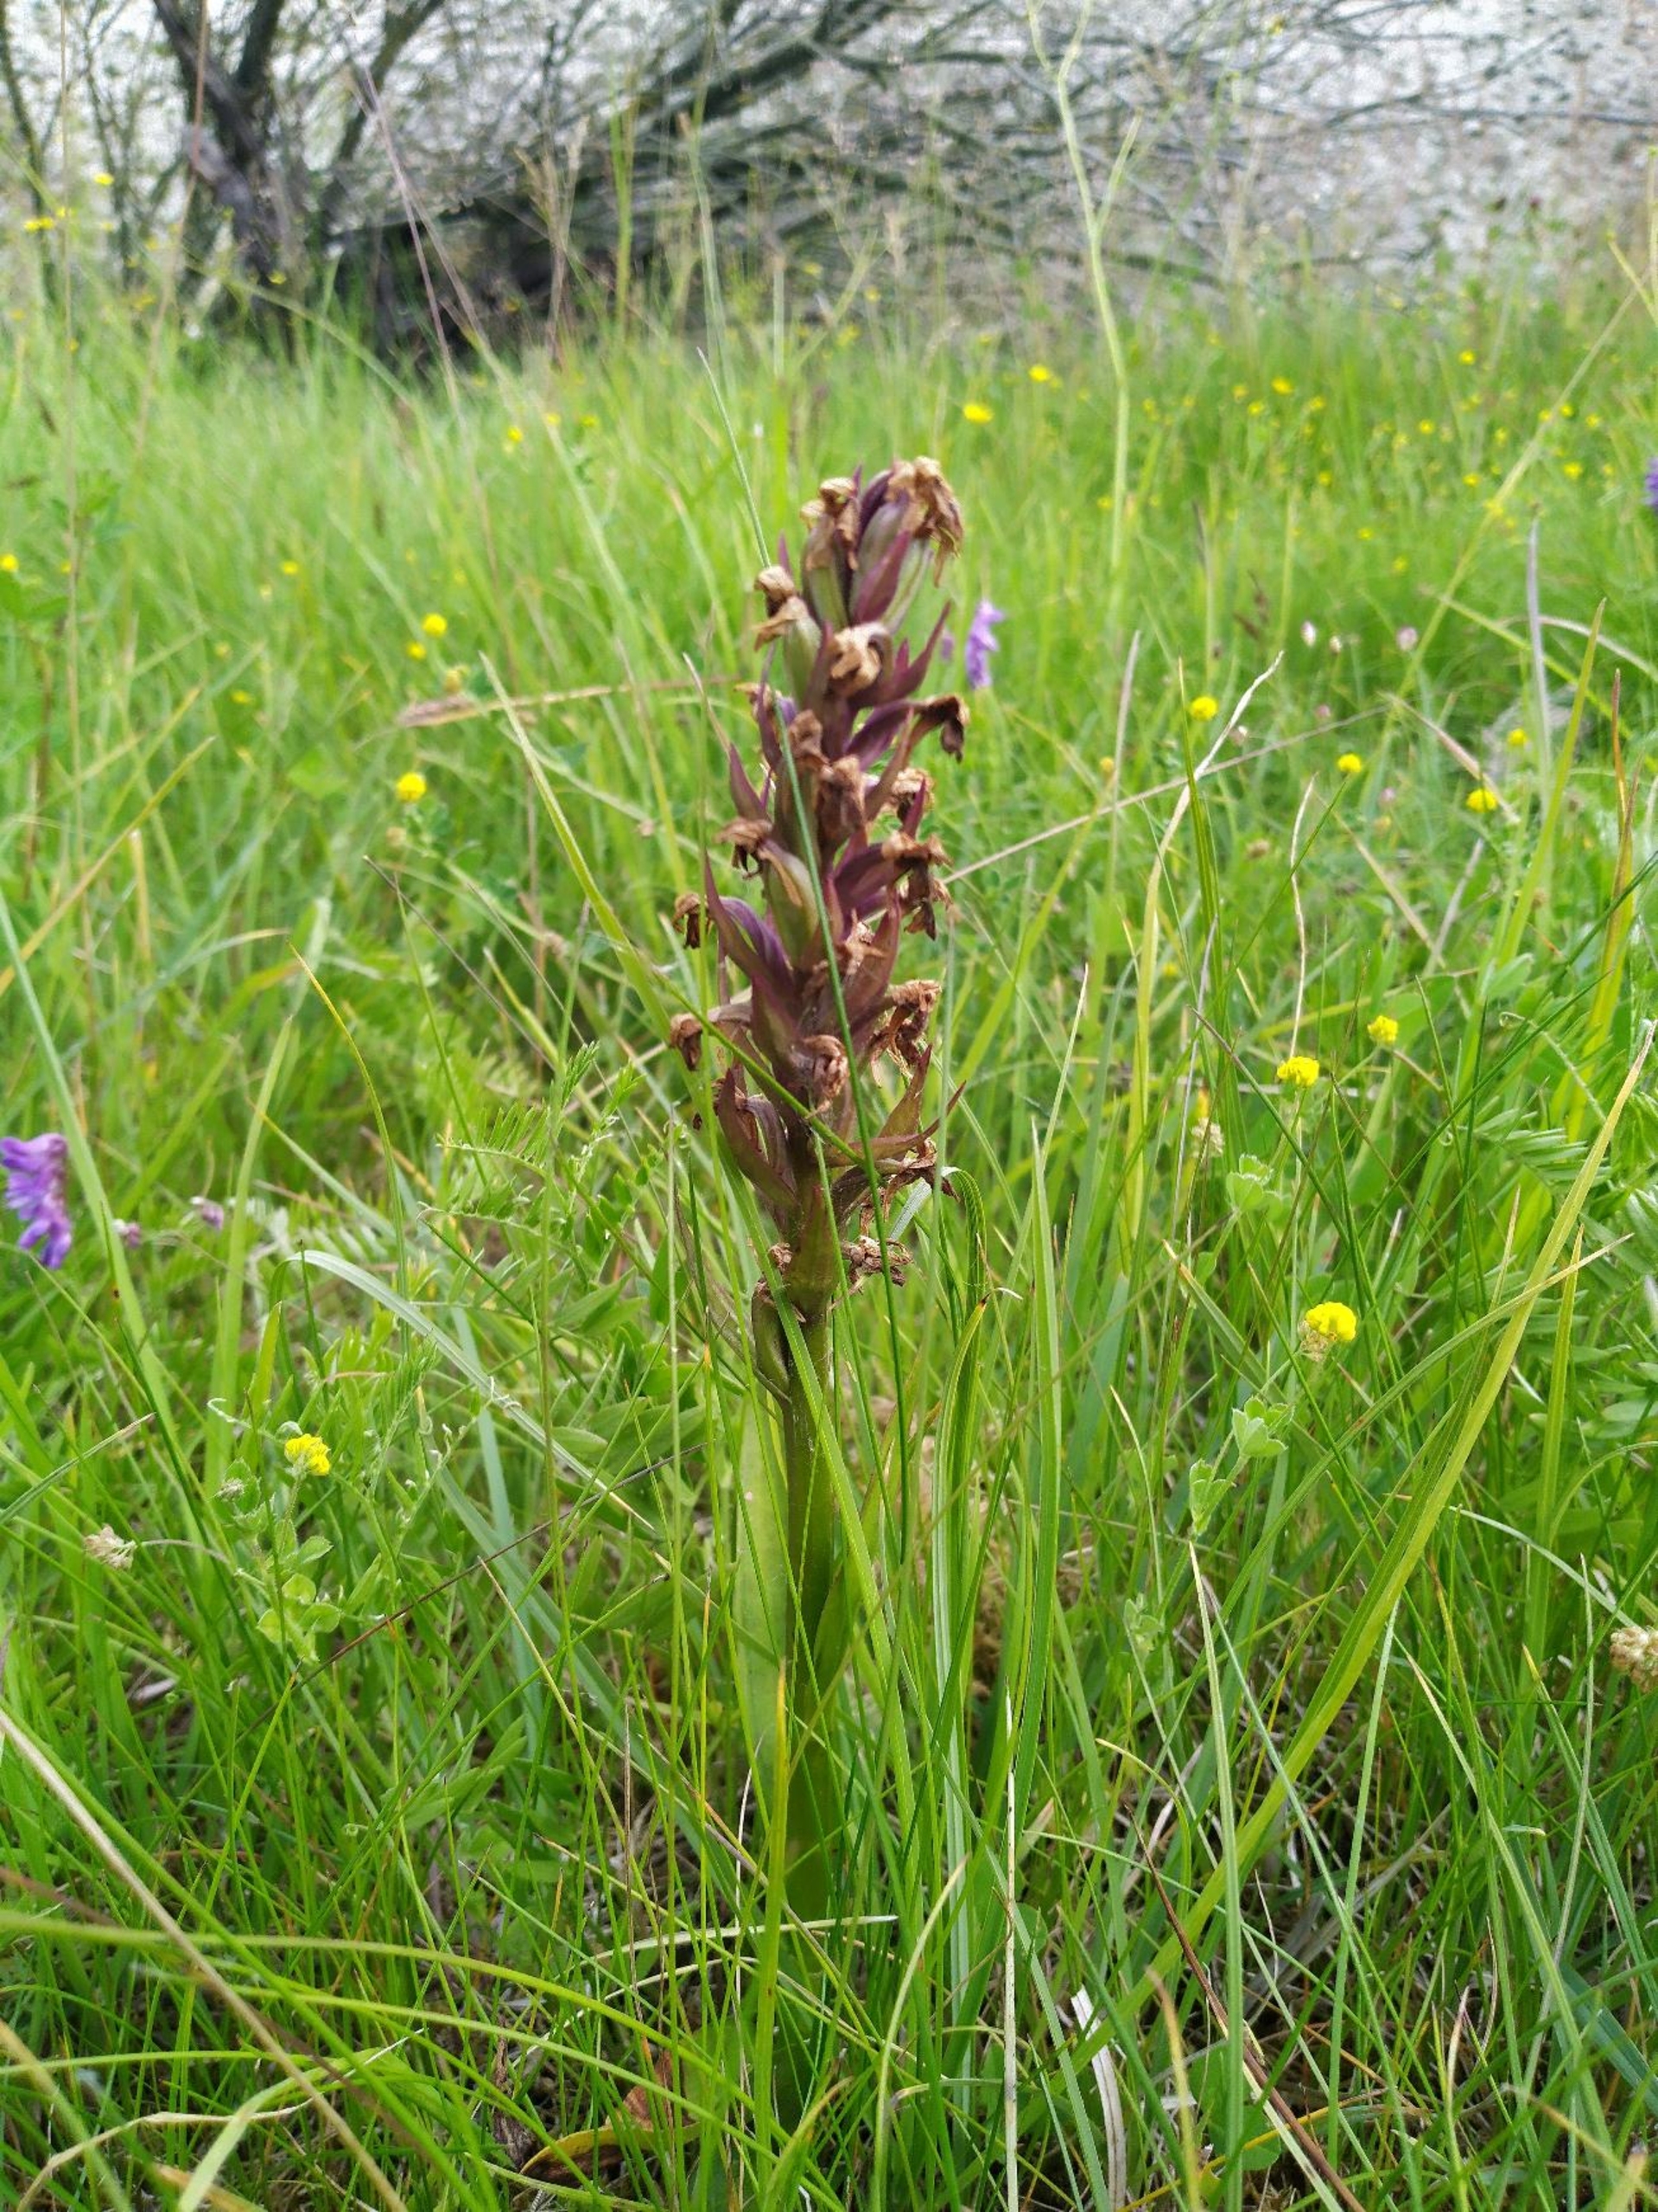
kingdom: Plantae
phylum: Tracheophyta
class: Liliopsida
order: Asparagales
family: Orchidaceae
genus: Dactylorhiza
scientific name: Dactylorhiza majalis
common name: Maj-gøgeurt
